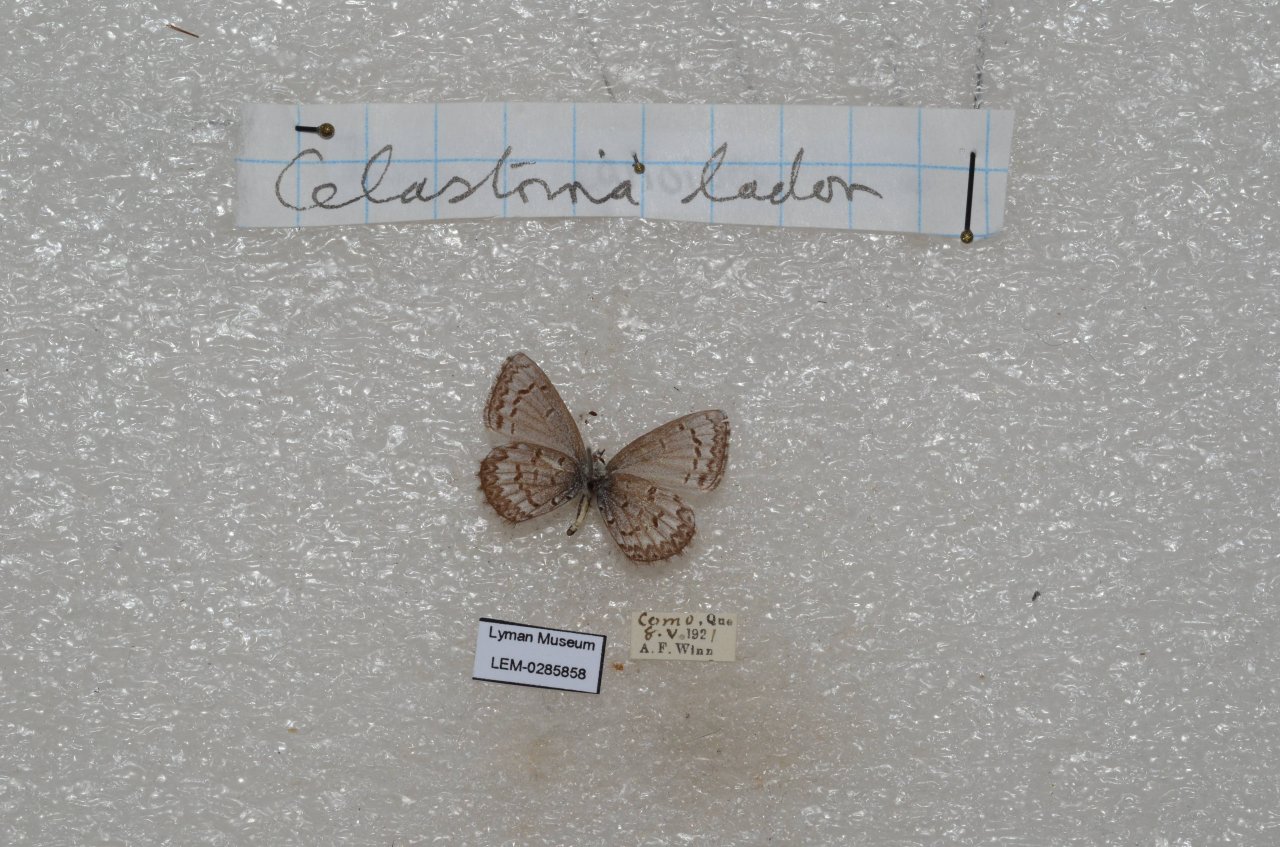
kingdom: Animalia
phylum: Arthropoda
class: Insecta
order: Lepidoptera
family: Lycaenidae
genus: Celastrina
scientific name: Celastrina lucia
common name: Northern Spring Azure
